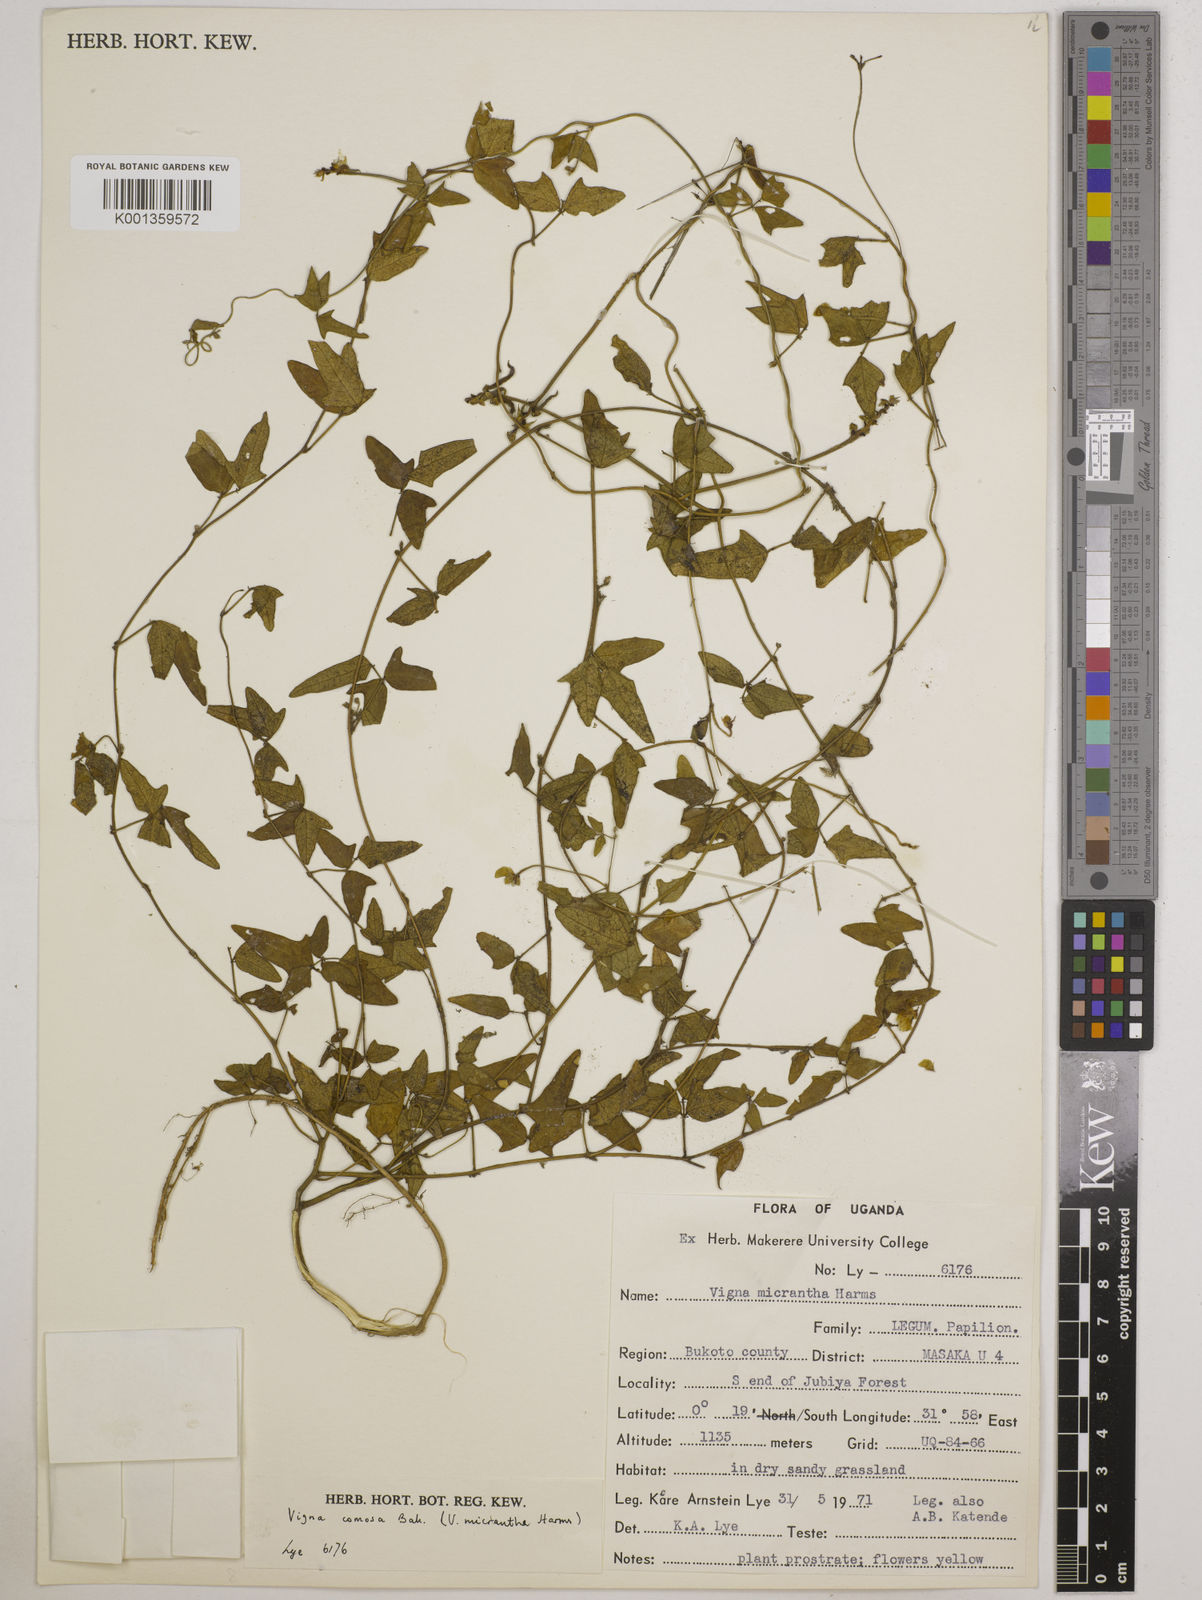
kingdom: Plantae
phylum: Tracheophyta
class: Magnoliopsida
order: Fabales
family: Fabaceae
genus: Vigna
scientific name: Vigna comosa
